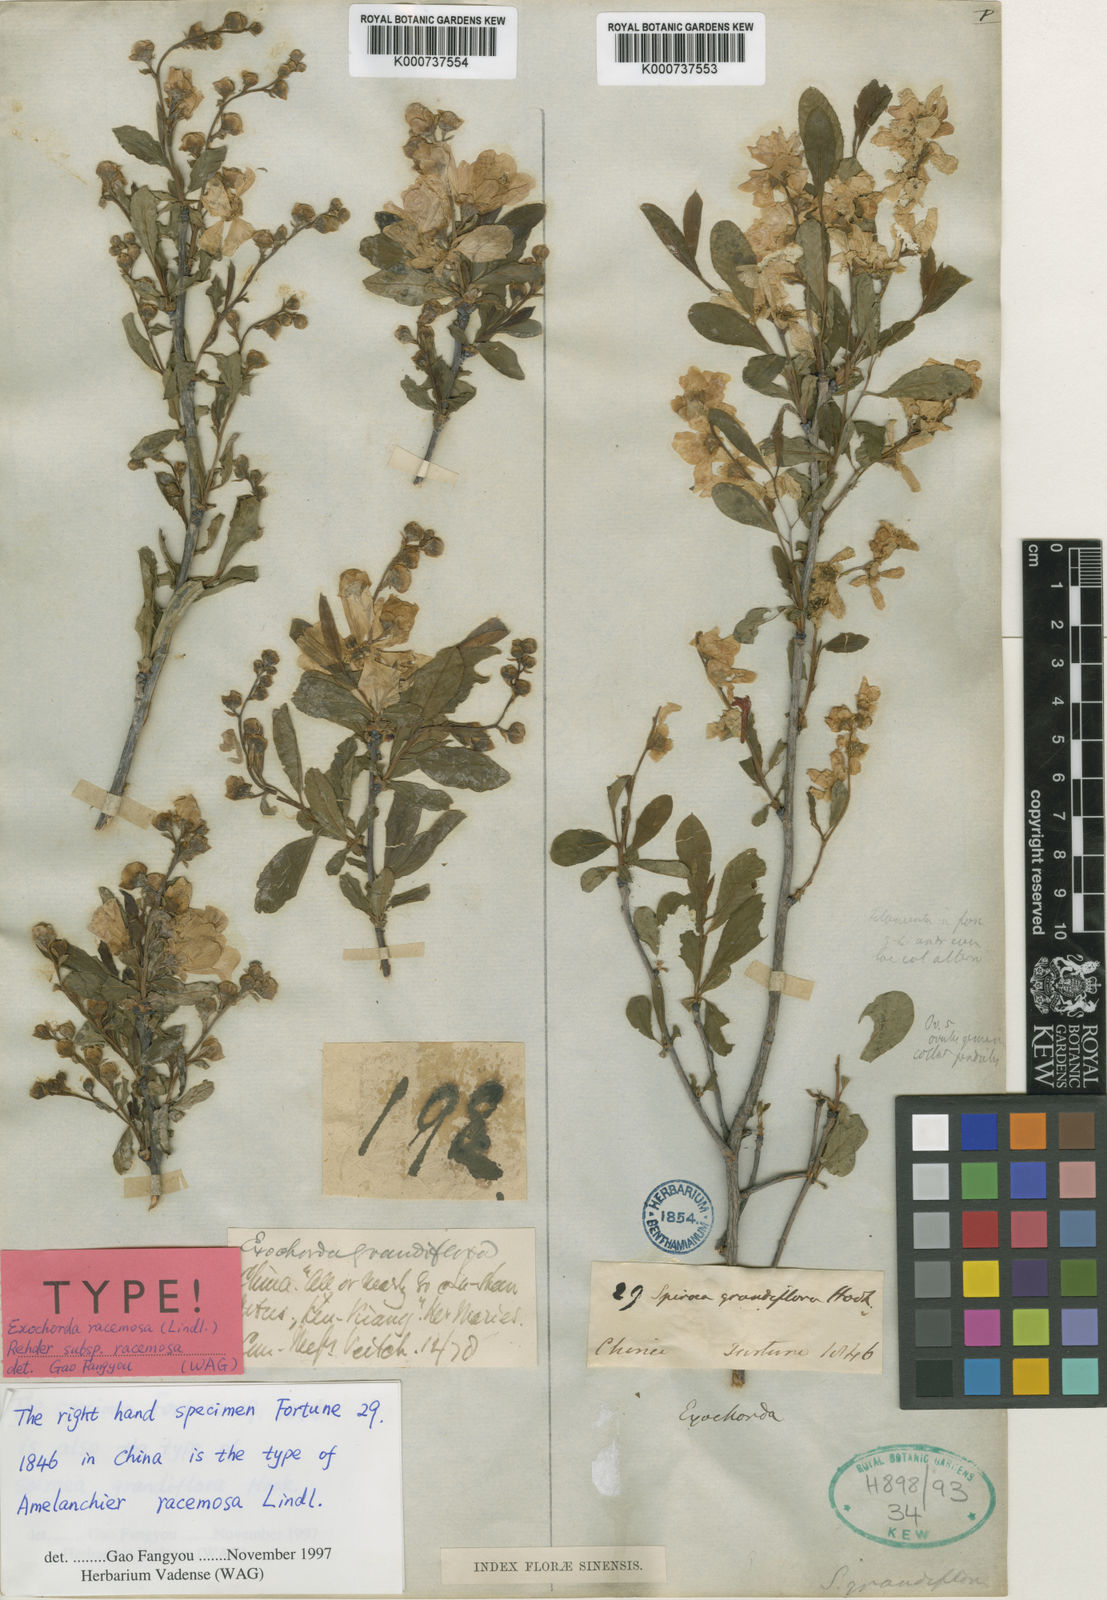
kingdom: Plantae
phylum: Tracheophyta
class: Magnoliopsida
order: Rosales
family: Rosaceae
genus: Exochorda
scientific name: Exochorda racemosa
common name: Common pearlbrush
